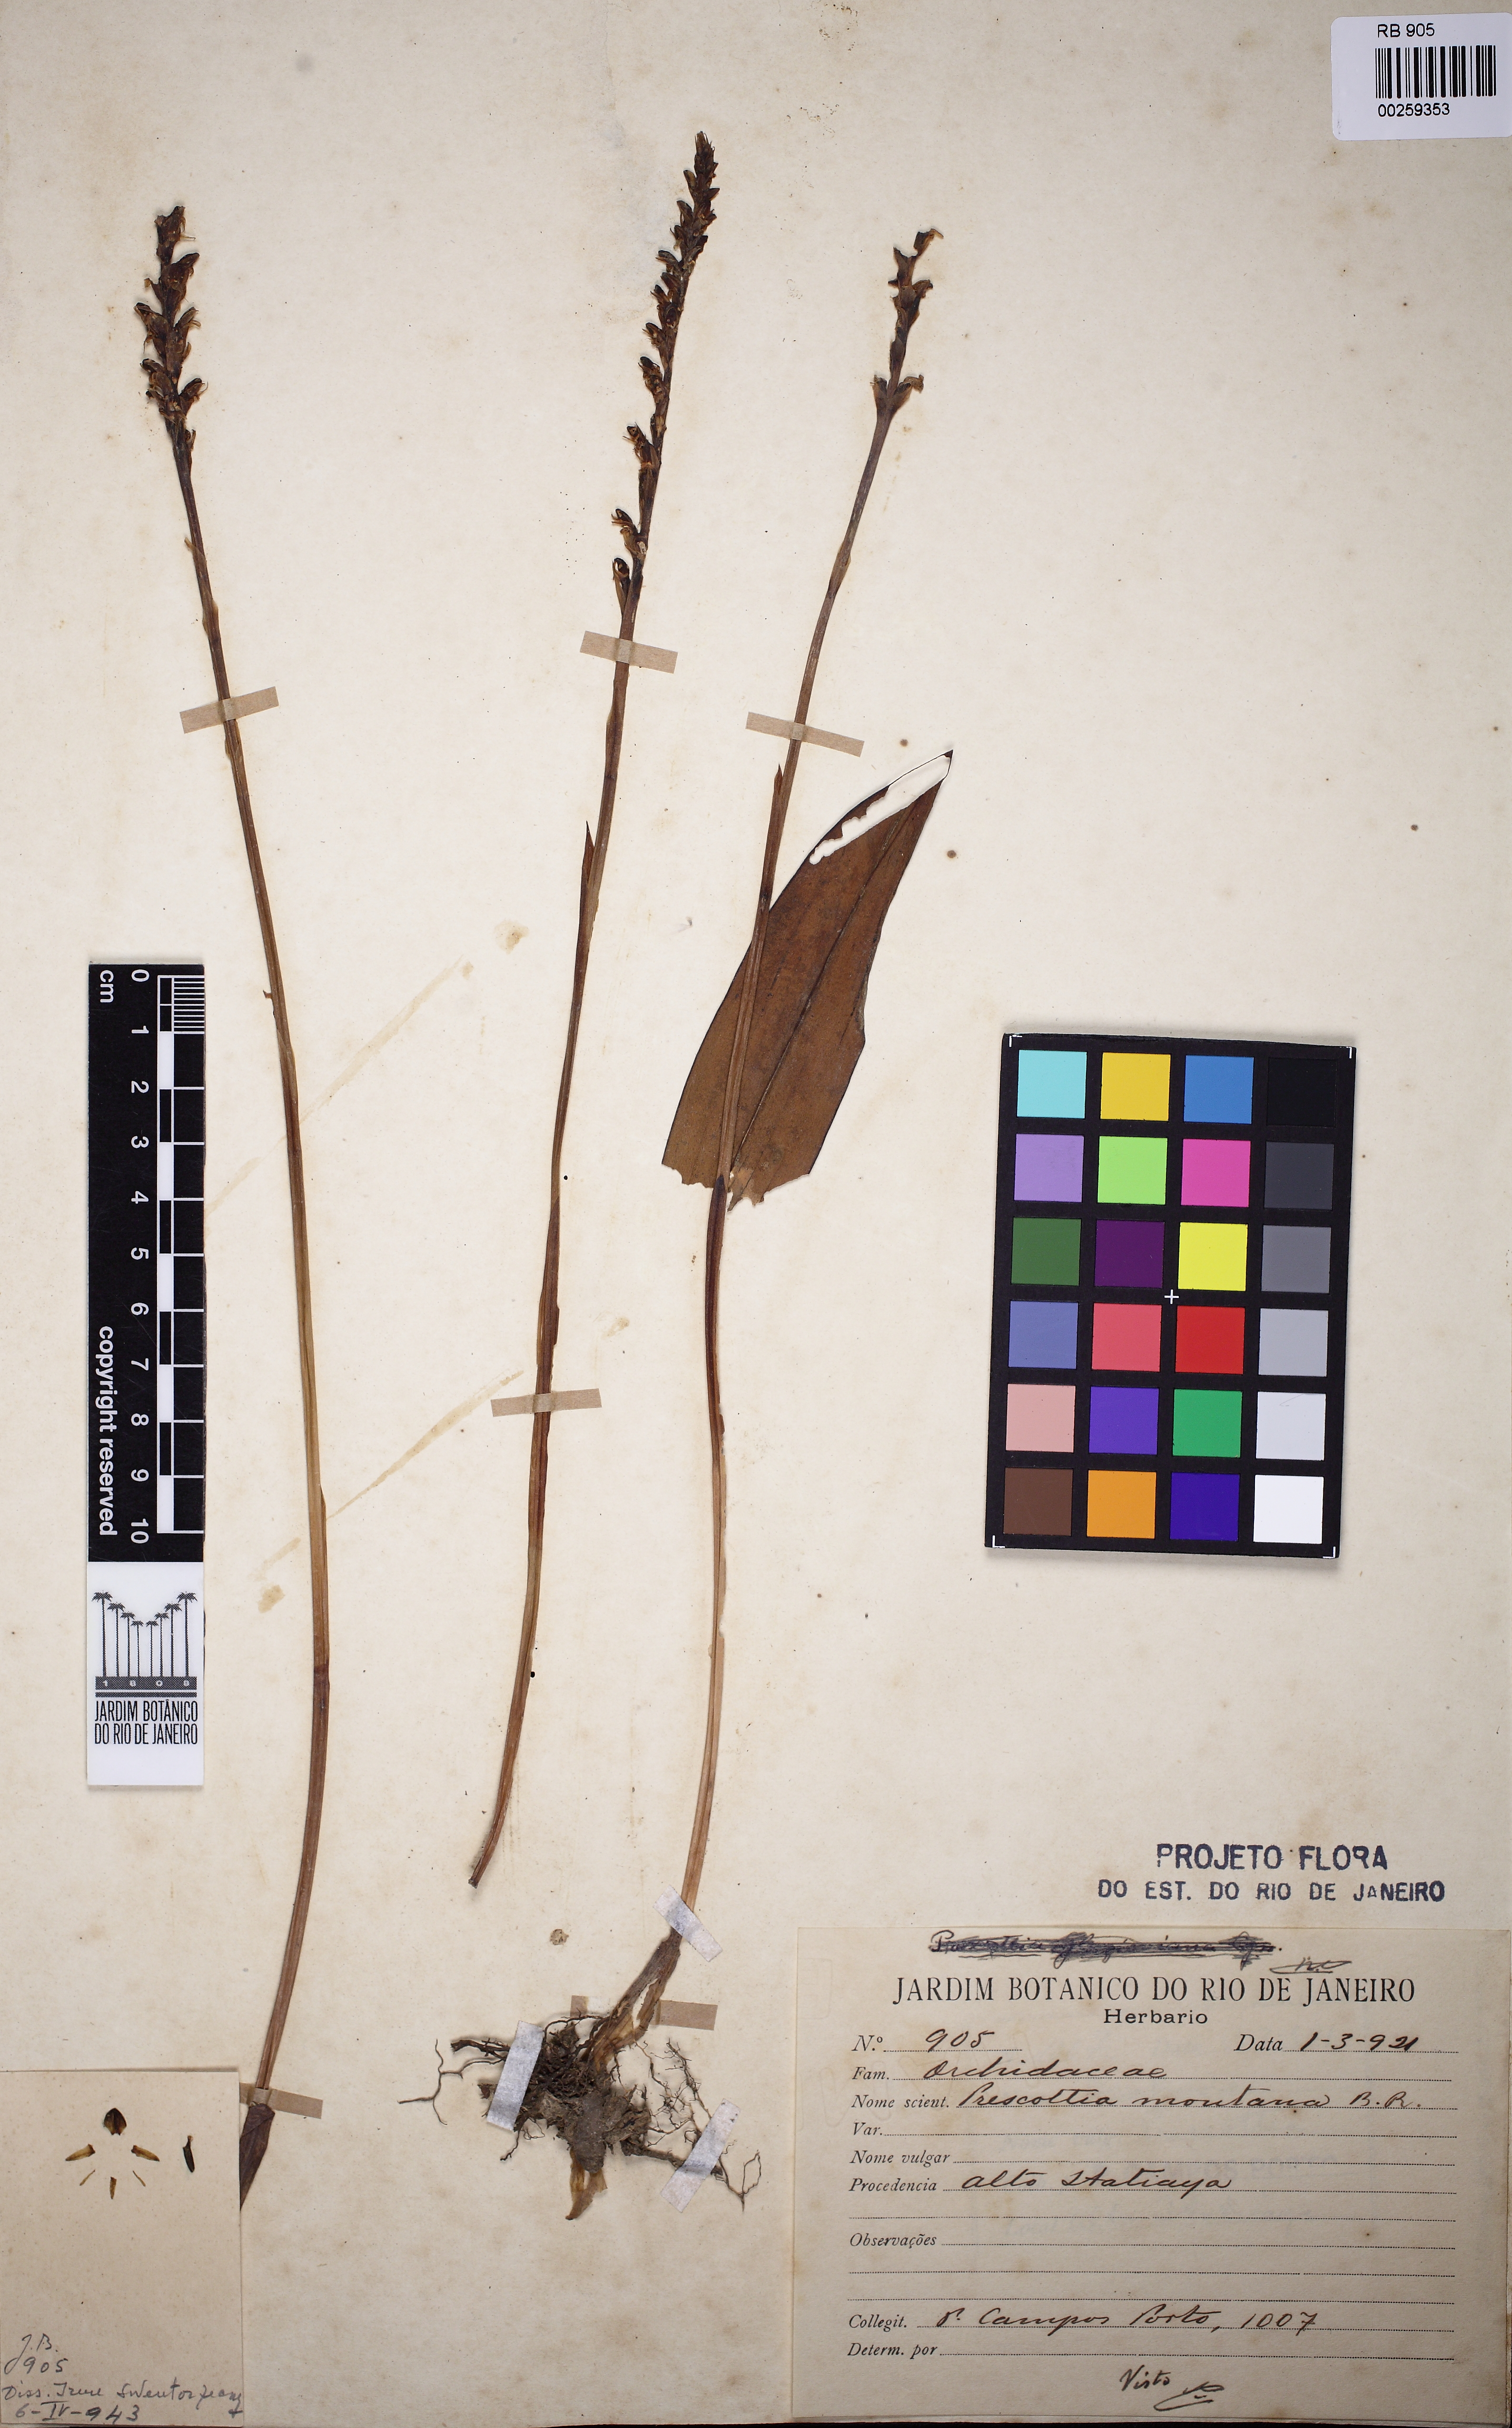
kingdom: Plantae
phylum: Tracheophyta
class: Liliopsida
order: Asparagales
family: Orchidaceae
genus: Prescottia
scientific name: Prescottia montana
